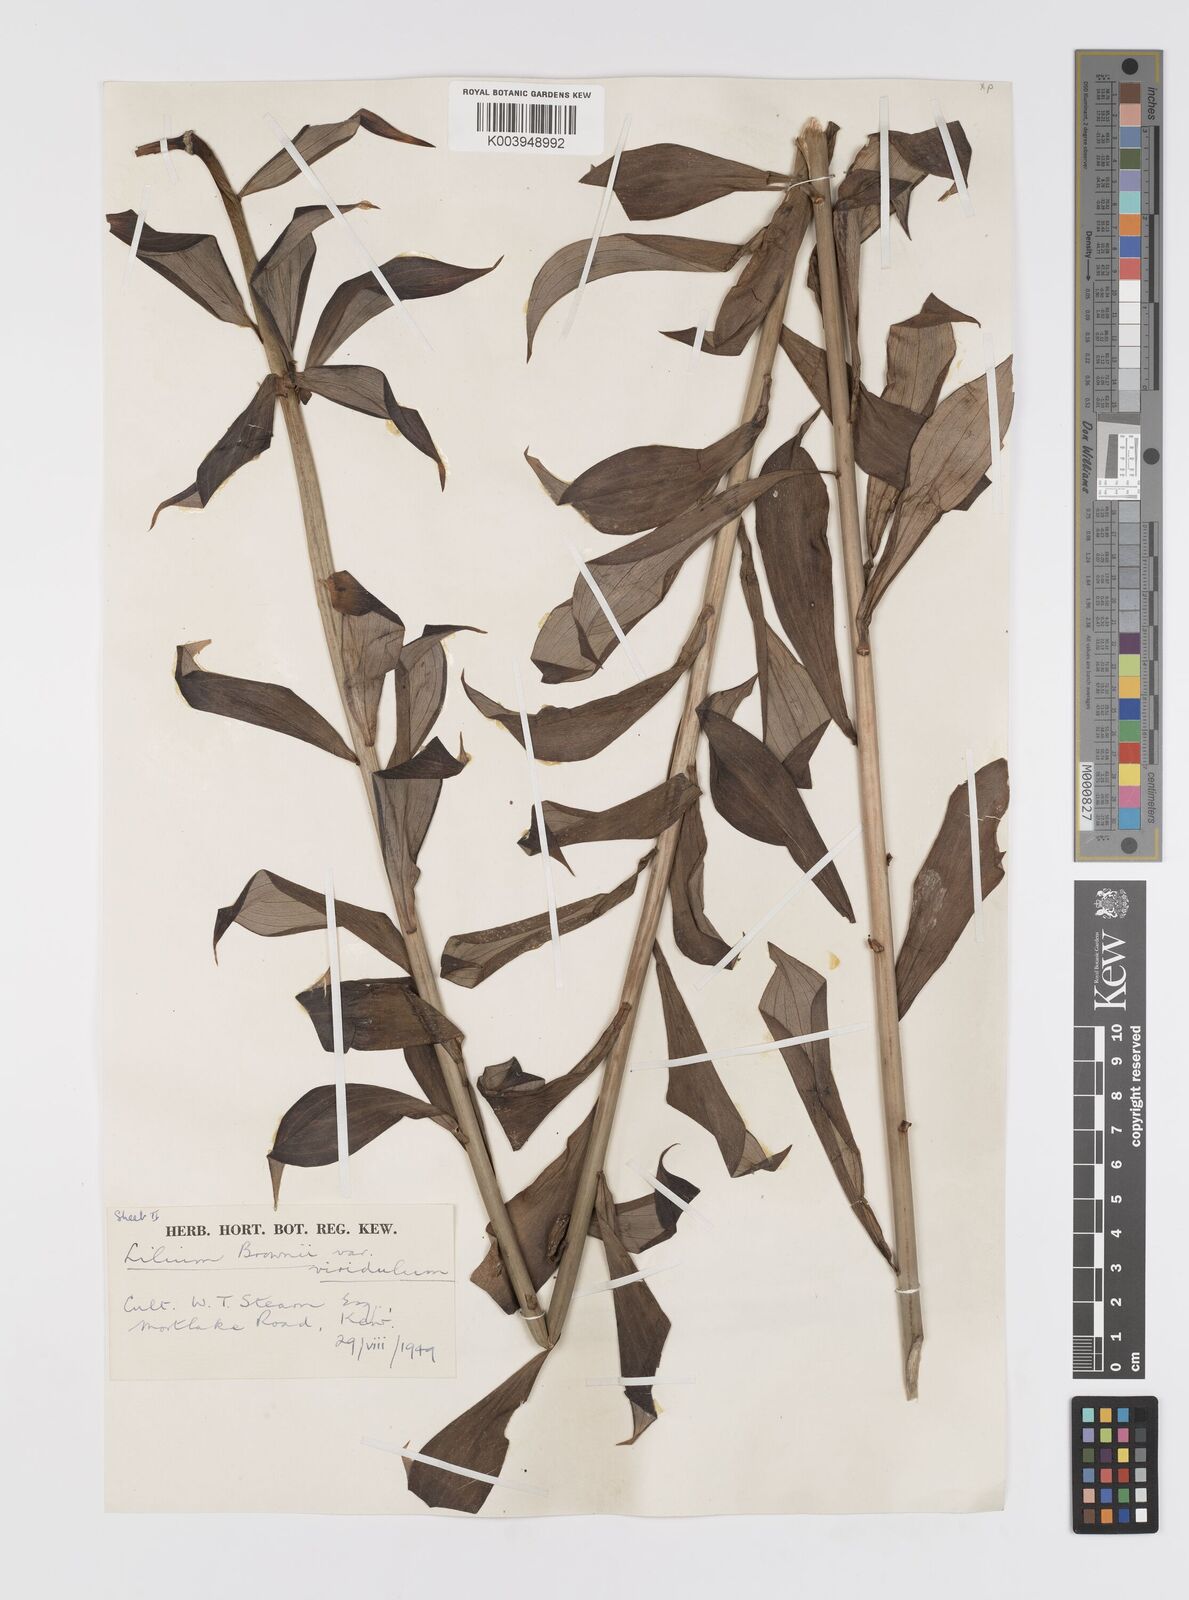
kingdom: Plantae
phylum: Tracheophyta
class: Liliopsida
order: Liliales
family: Liliaceae
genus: Lilium
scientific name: Lilium brownii
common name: Brown's lily
